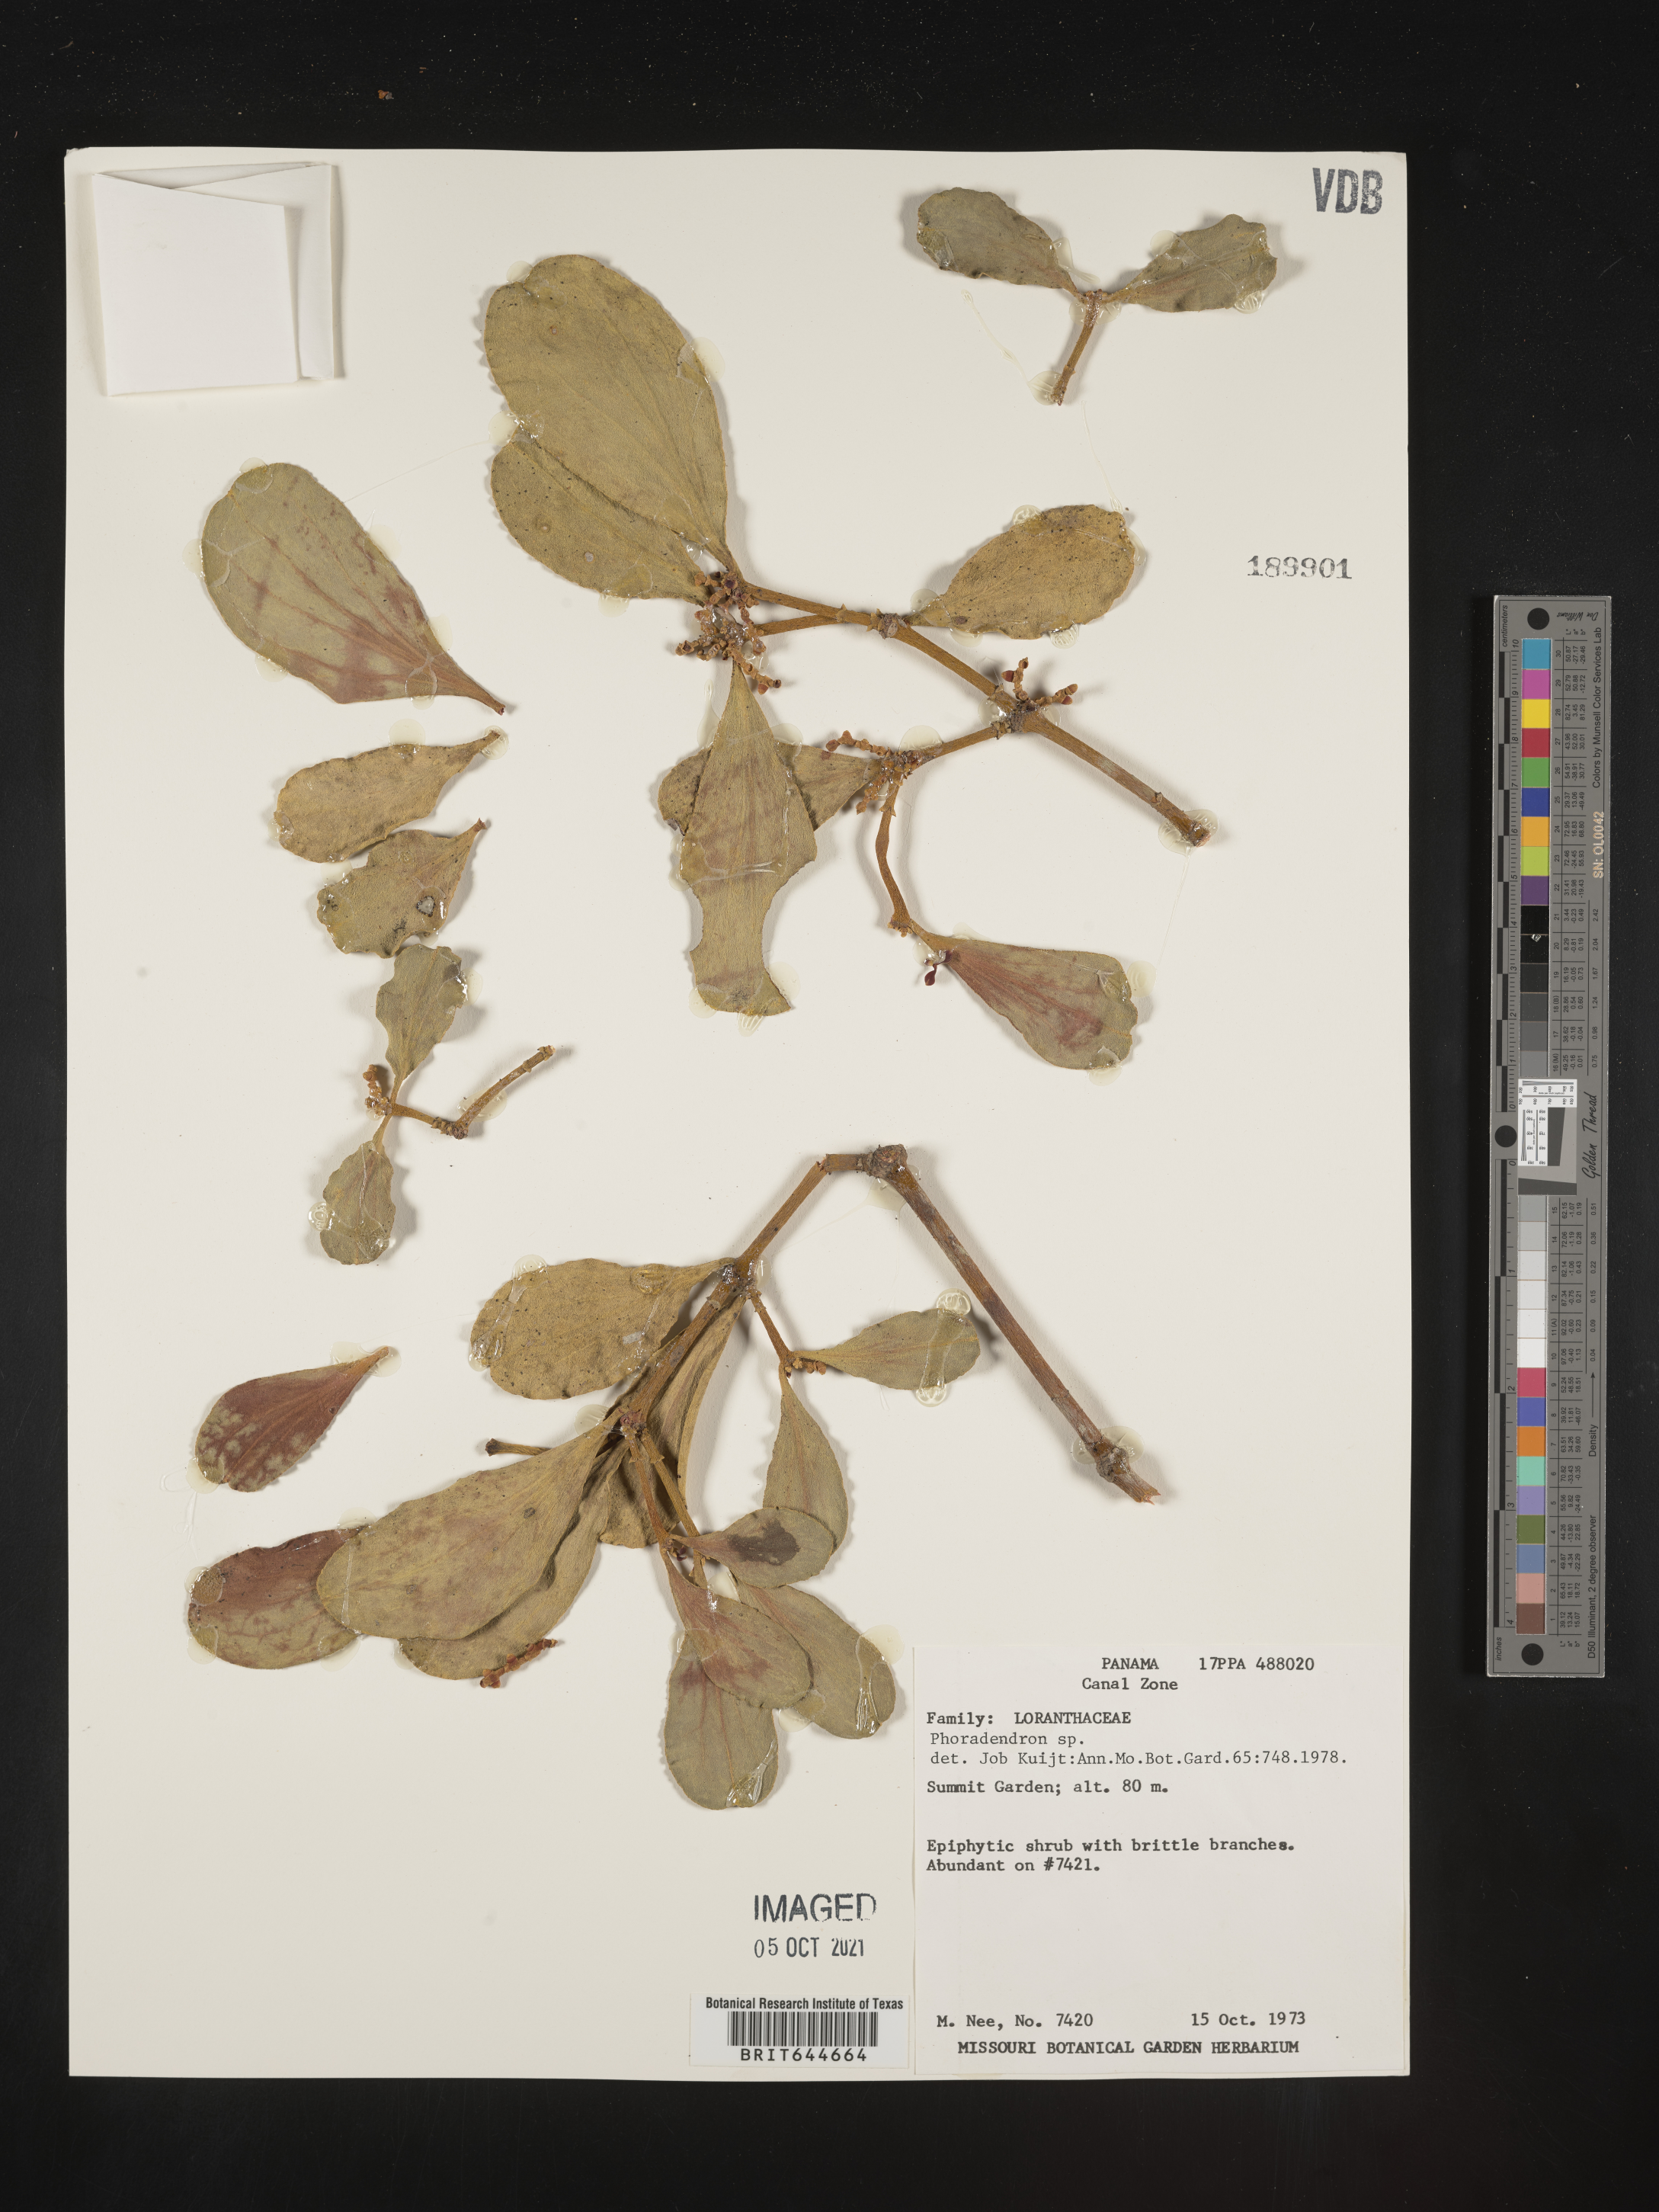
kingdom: Plantae
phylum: Tracheophyta
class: Magnoliopsida
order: Santalales
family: Viscaceae
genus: Phoradendron
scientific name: Phoradendron
